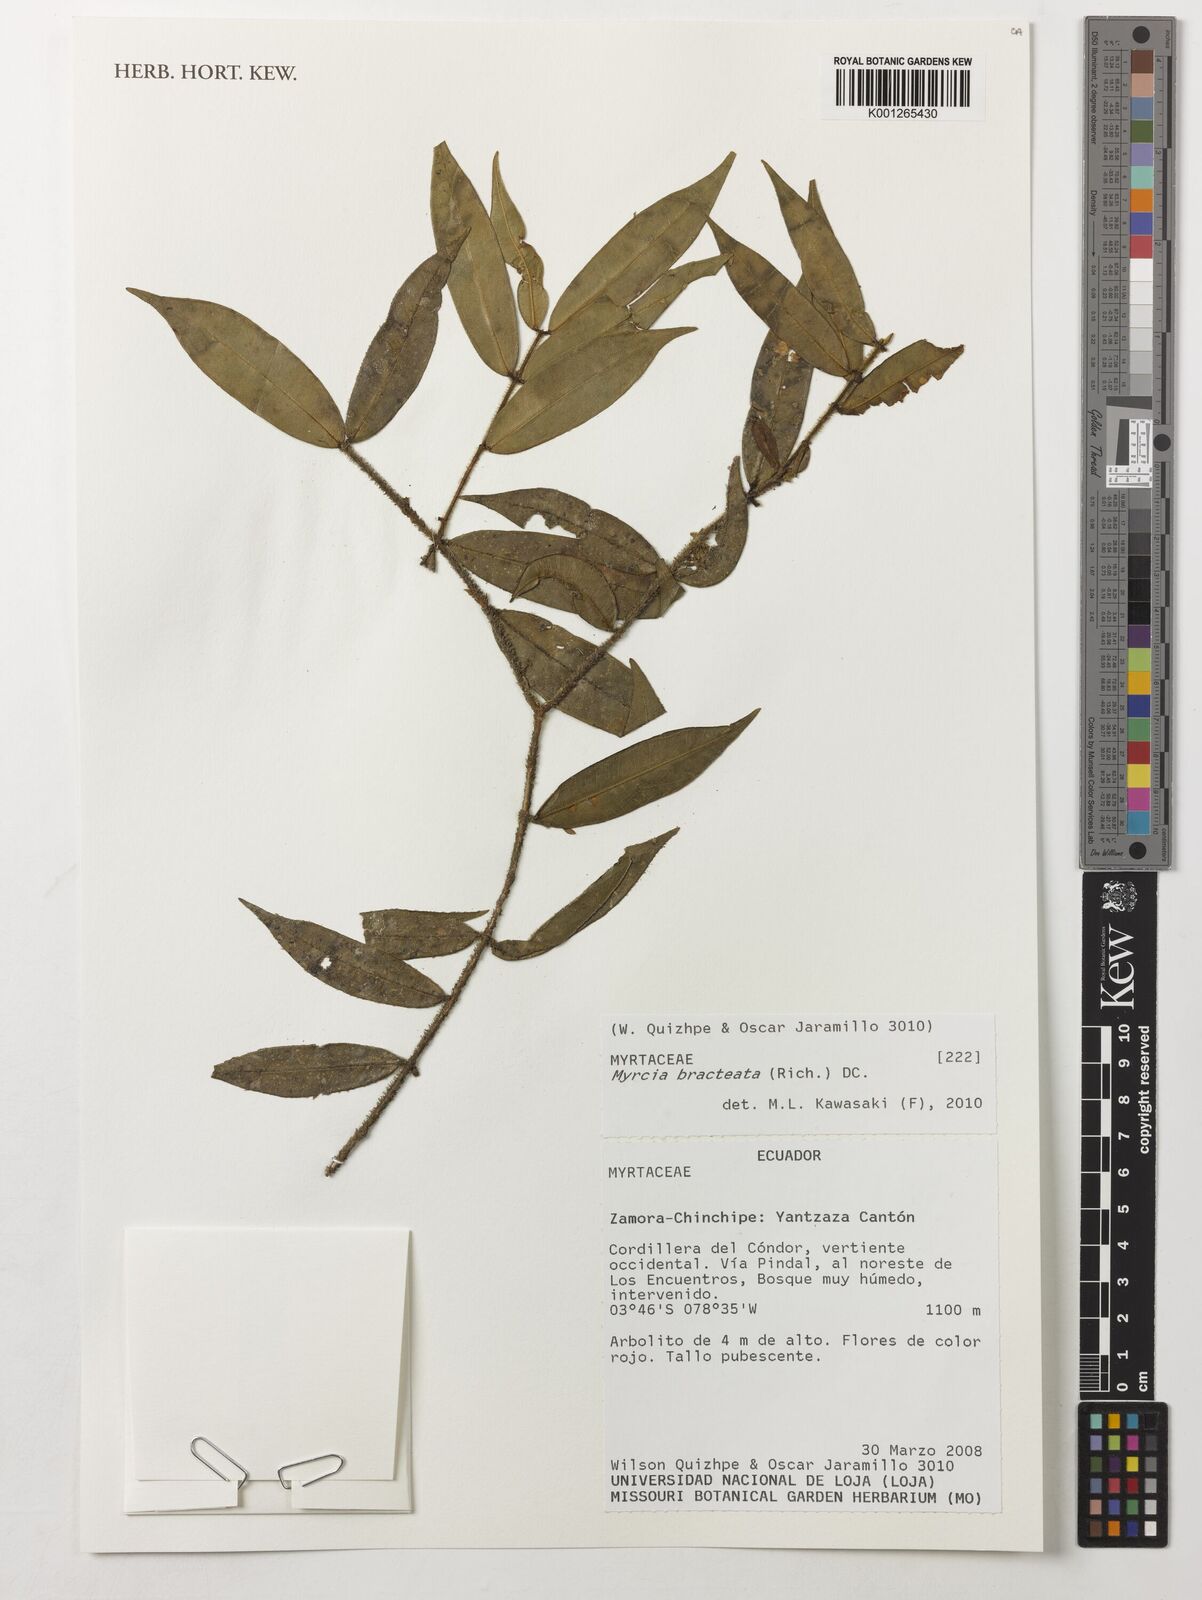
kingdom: Plantae
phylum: Tracheophyta
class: Magnoliopsida
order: Myrtales
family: Myrtaceae
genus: Myrcia
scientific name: Myrcia bracteata
